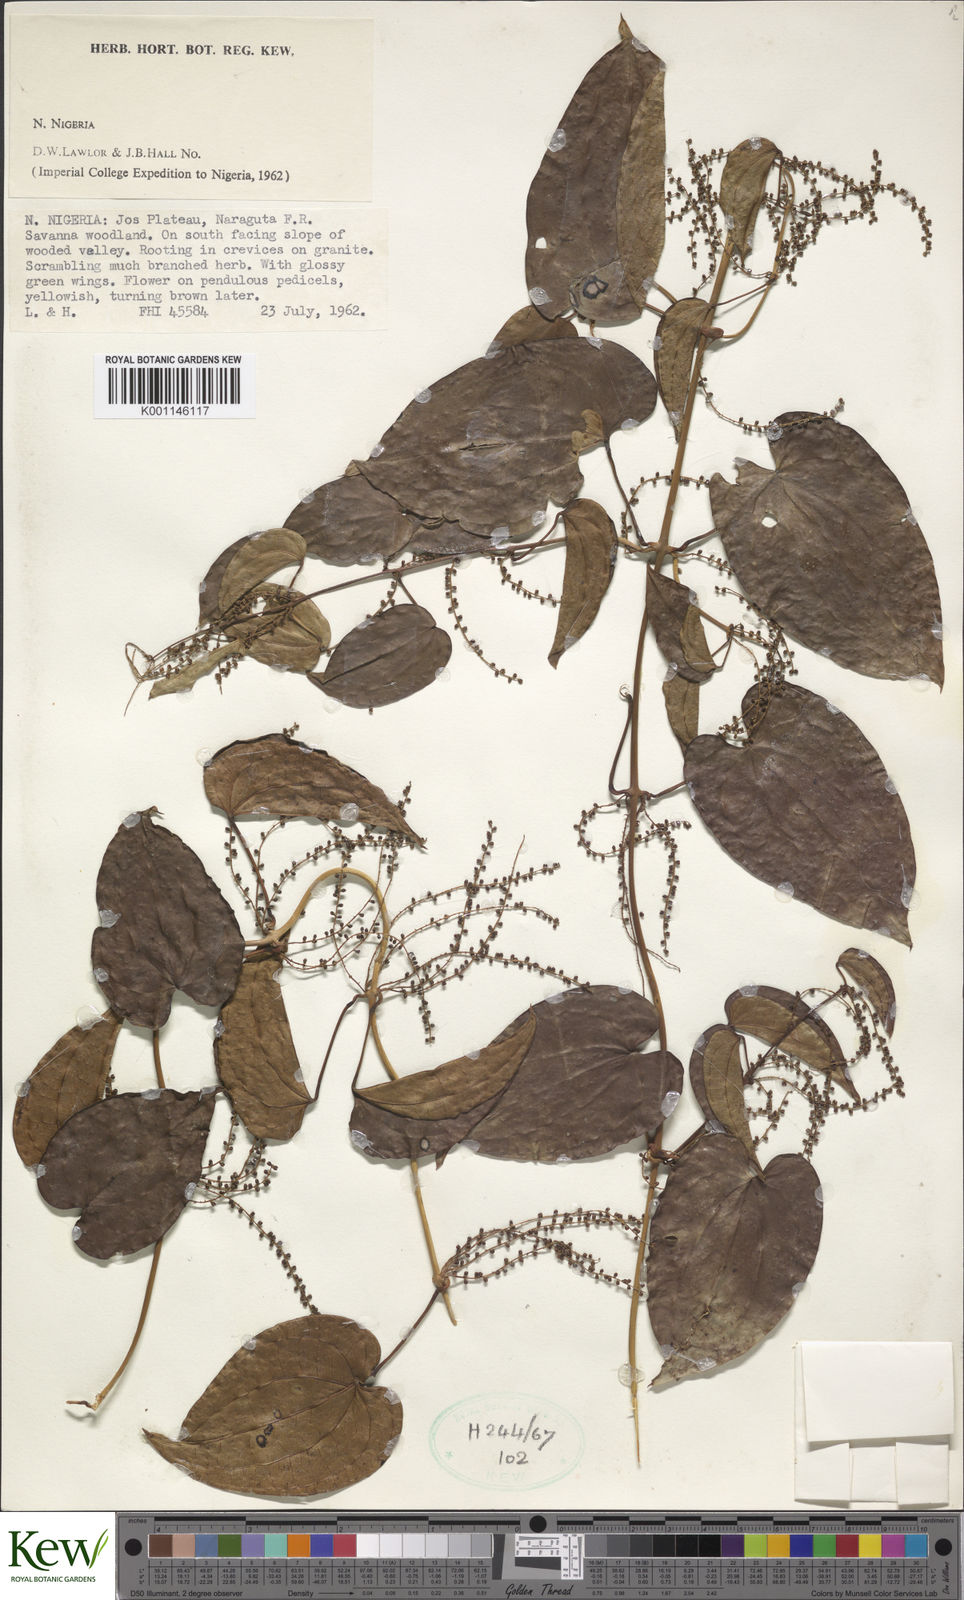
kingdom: Plantae
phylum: Tracheophyta
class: Liliopsida
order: Dioscoreales
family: Dioscoreaceae
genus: Dioscorea
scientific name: Dioscorea
